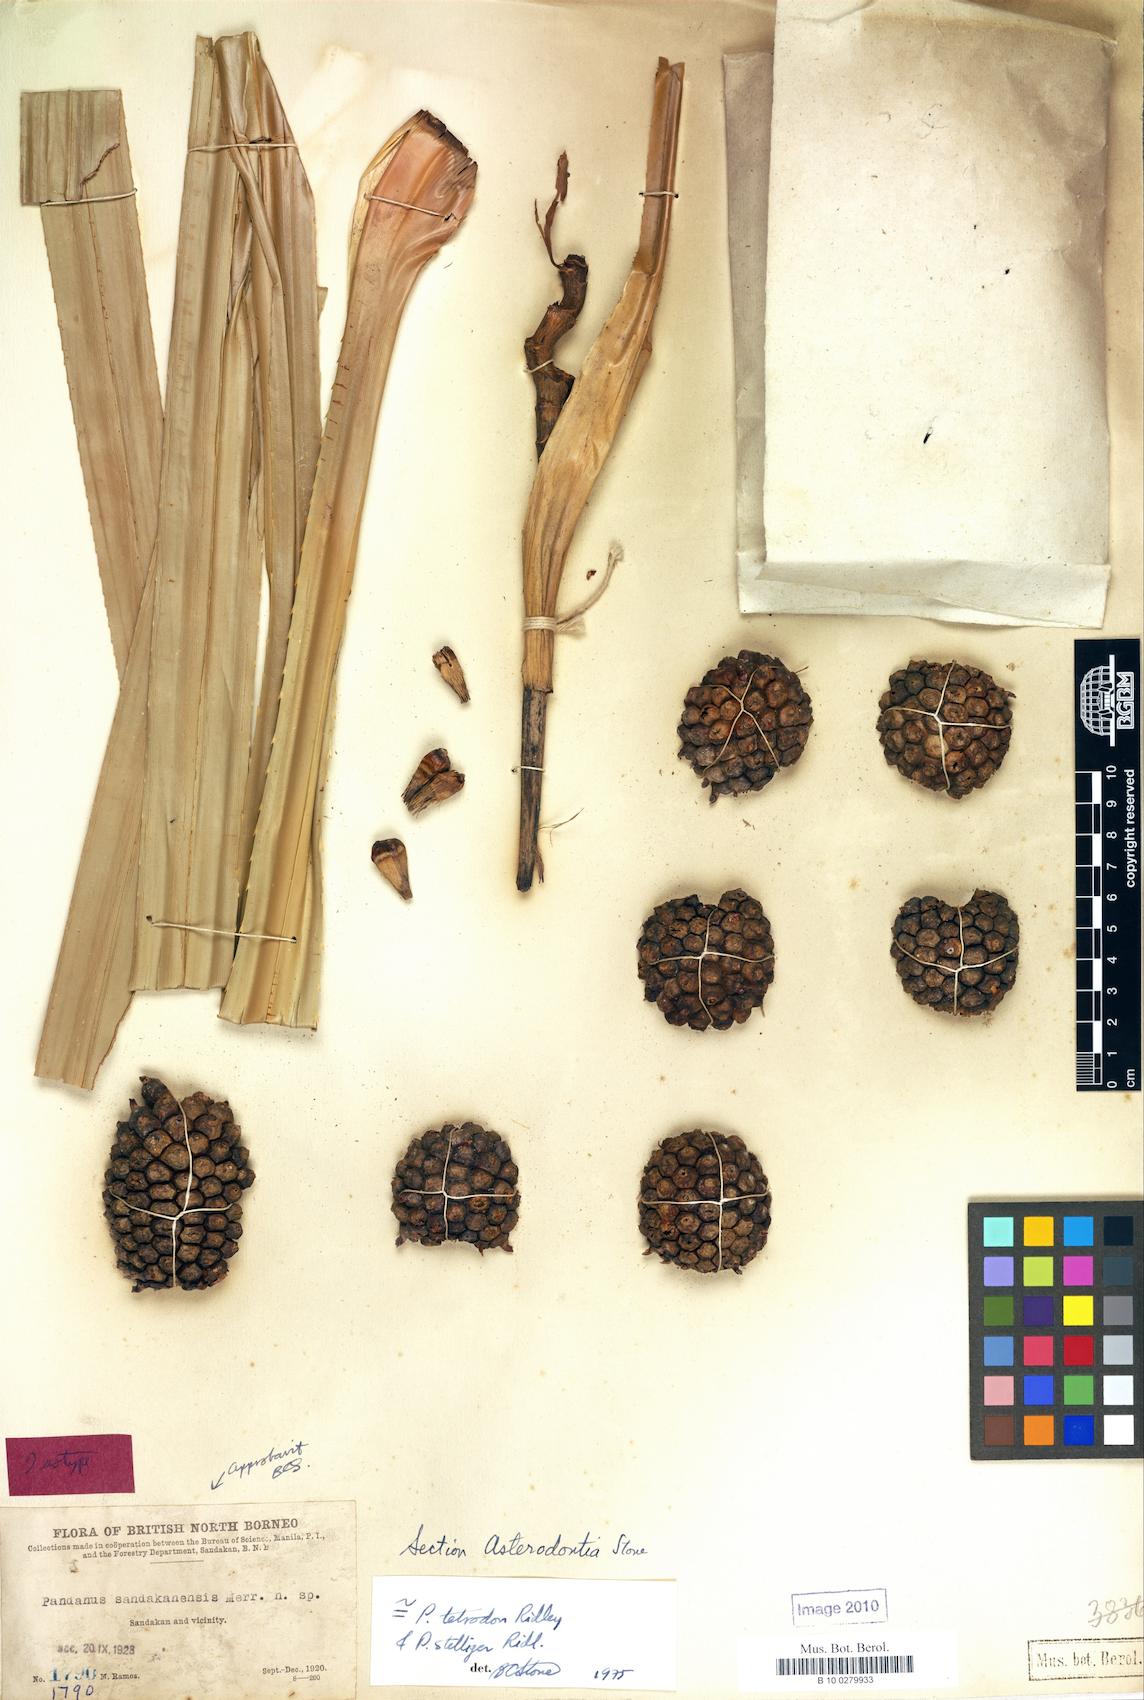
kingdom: Plantae
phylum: Tracheophyta
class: Liliopsida
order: Pandanales
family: Pandanaceae
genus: Pandanus
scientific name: Pandanus borneensis
